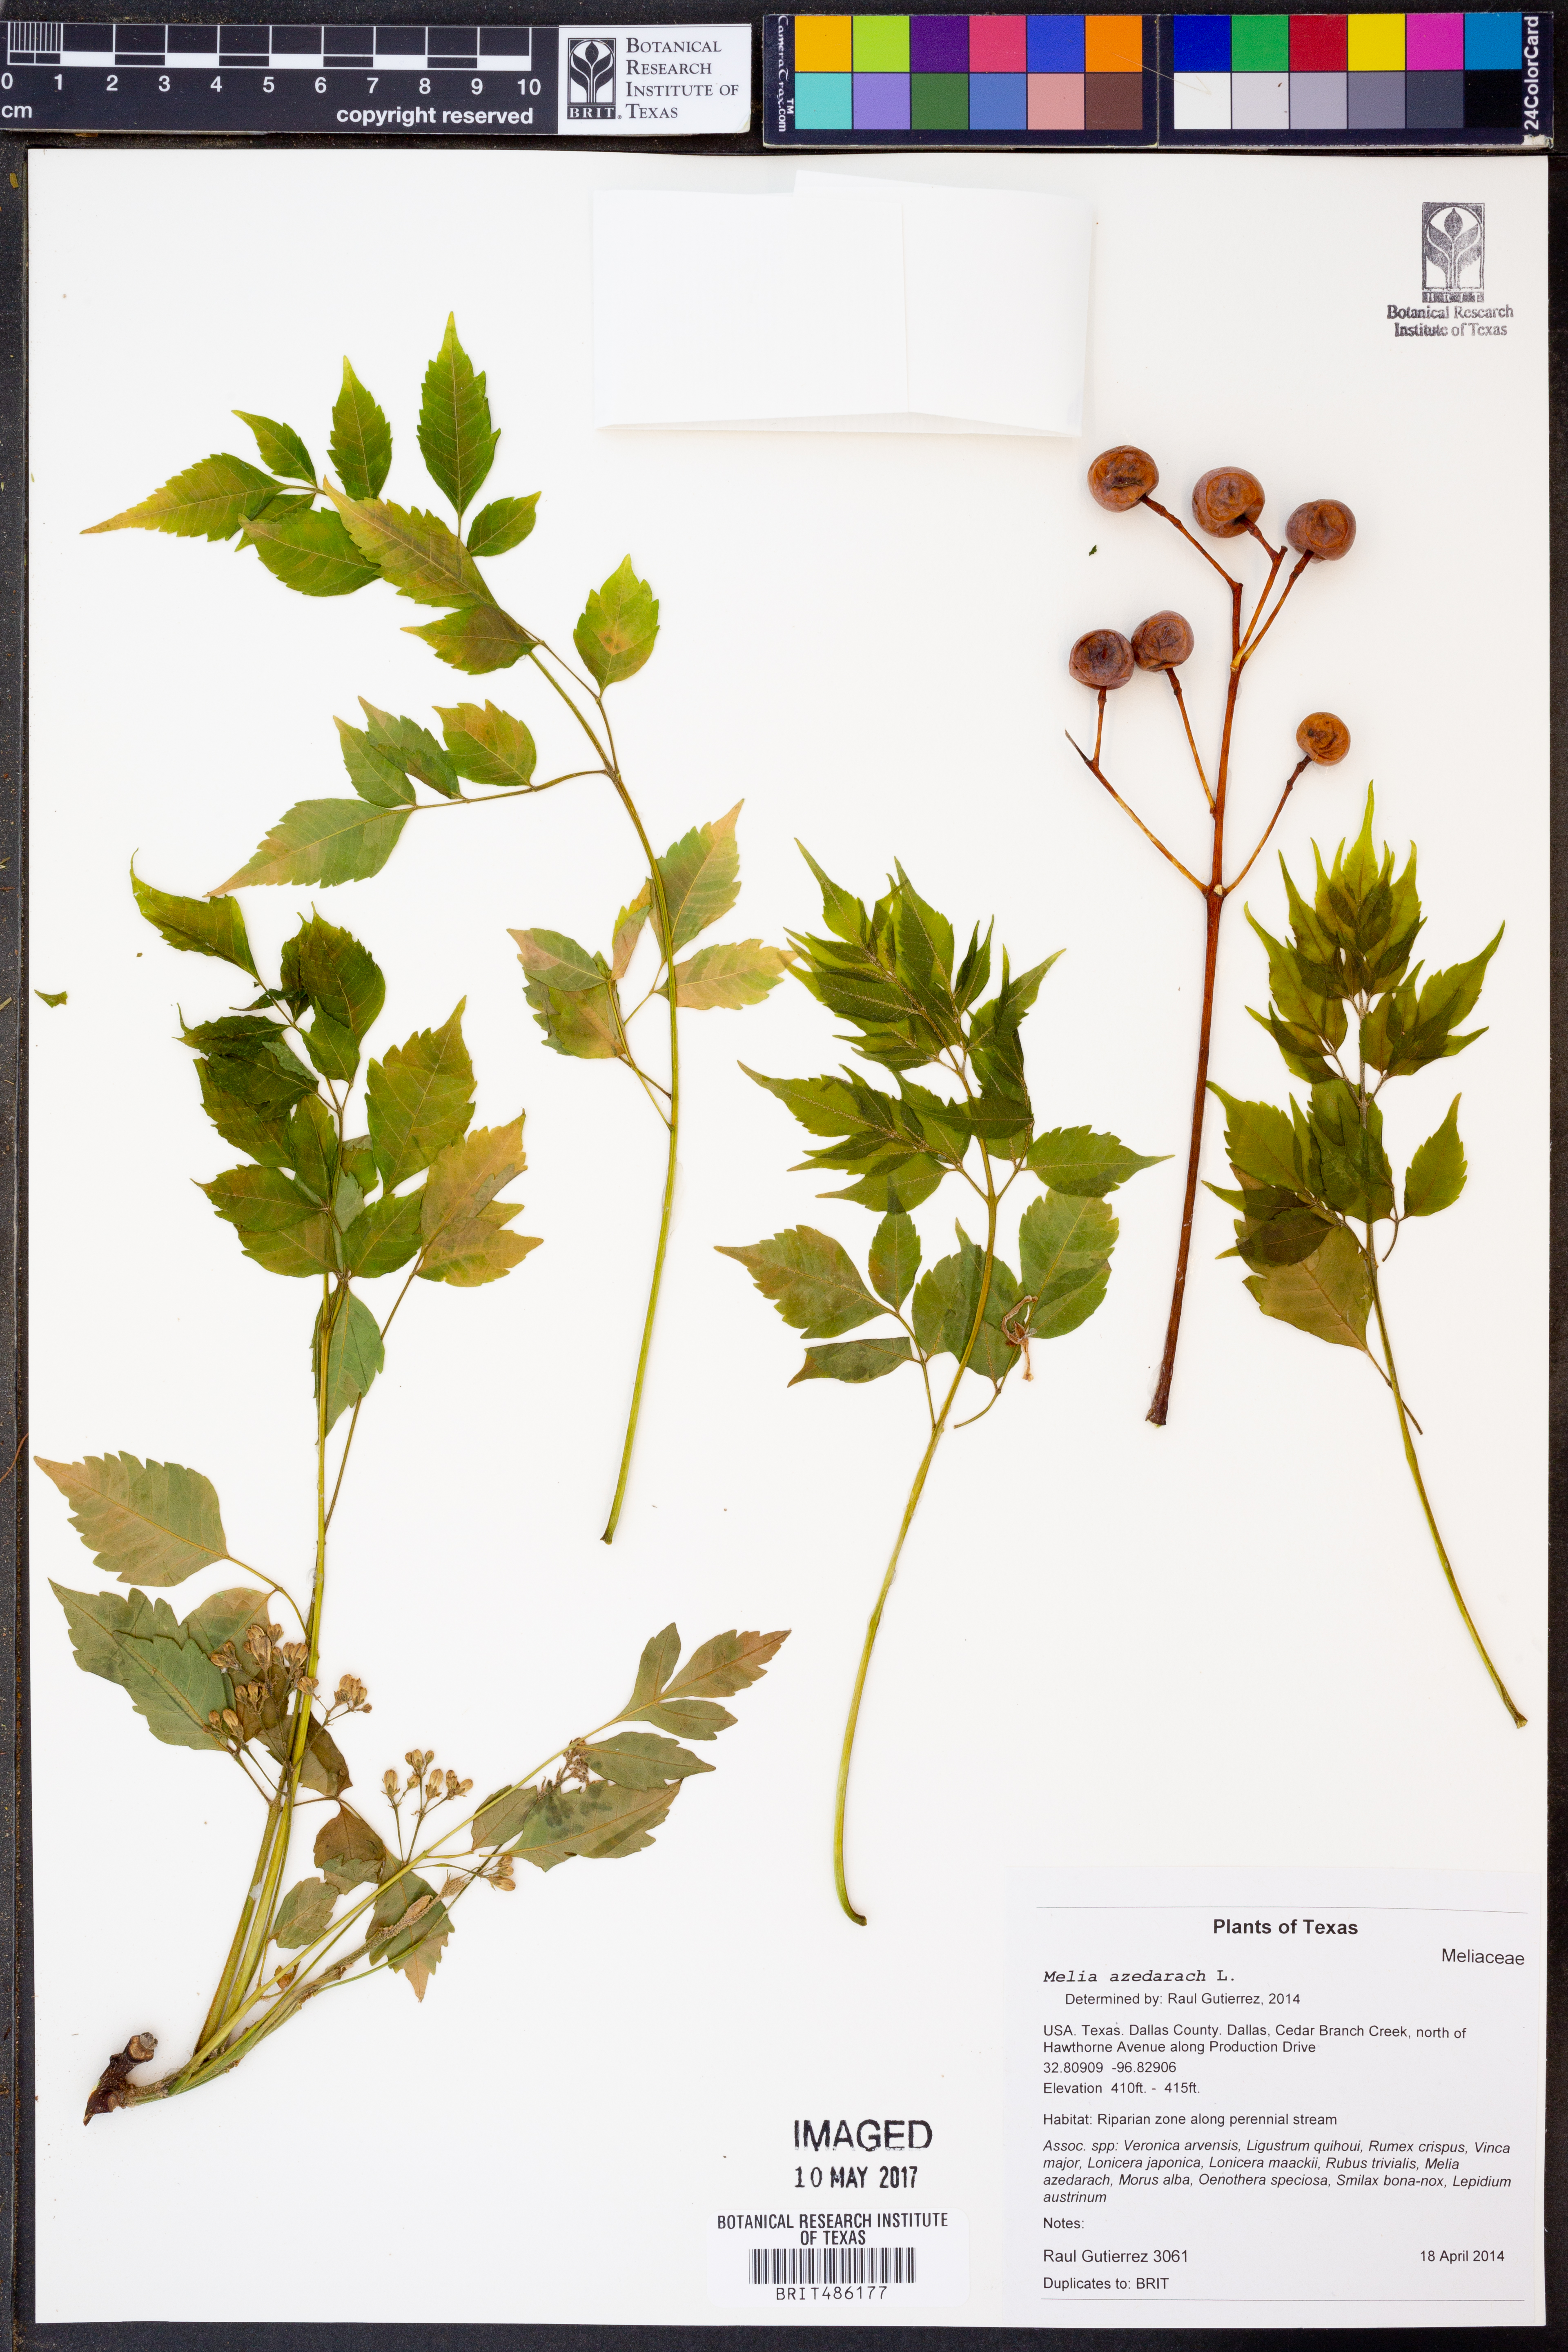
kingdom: Plantae
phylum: Tracheophyta
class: Magnoliopsida
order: Sapindales
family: Meliaceae
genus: Melia
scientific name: Melia azedarach
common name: Chinaberrytree
